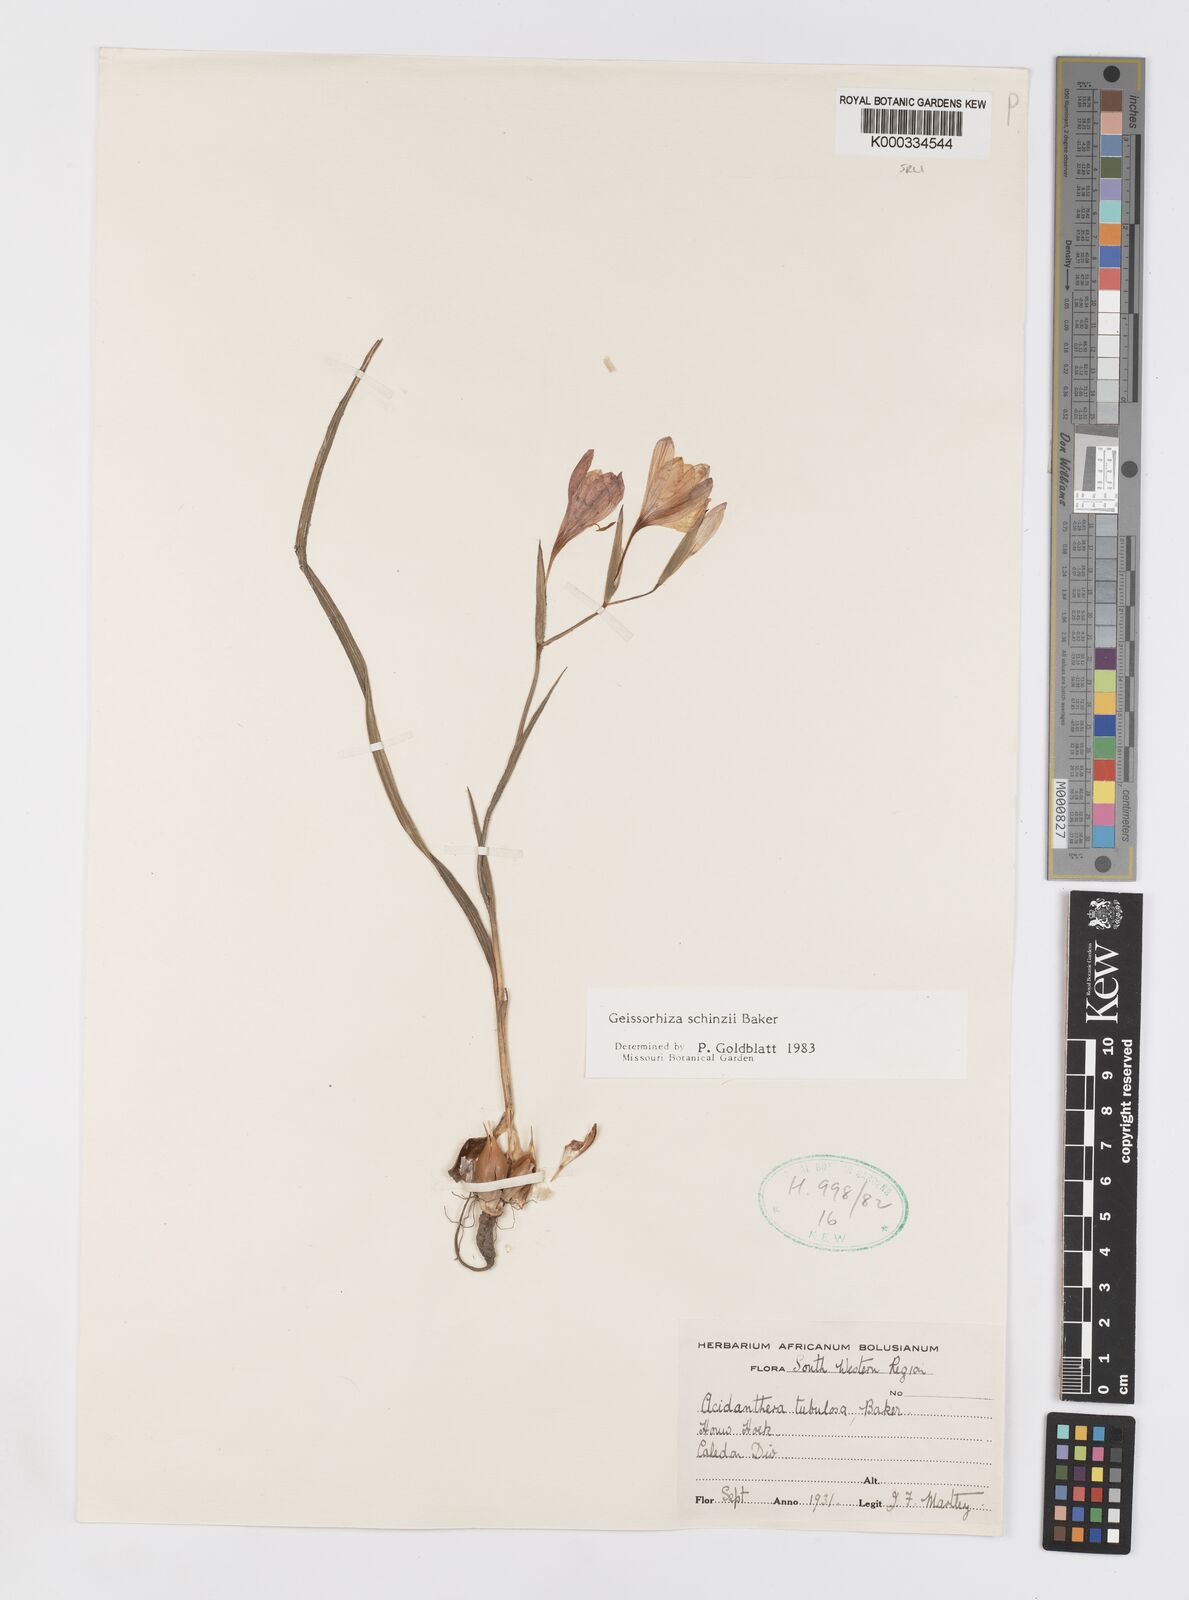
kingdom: Plantae
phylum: Tracheophyta
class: Liliopsida
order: Asparagales
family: Iridaceae
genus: Geissorhiza
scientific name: Geissorhiza schinzii
